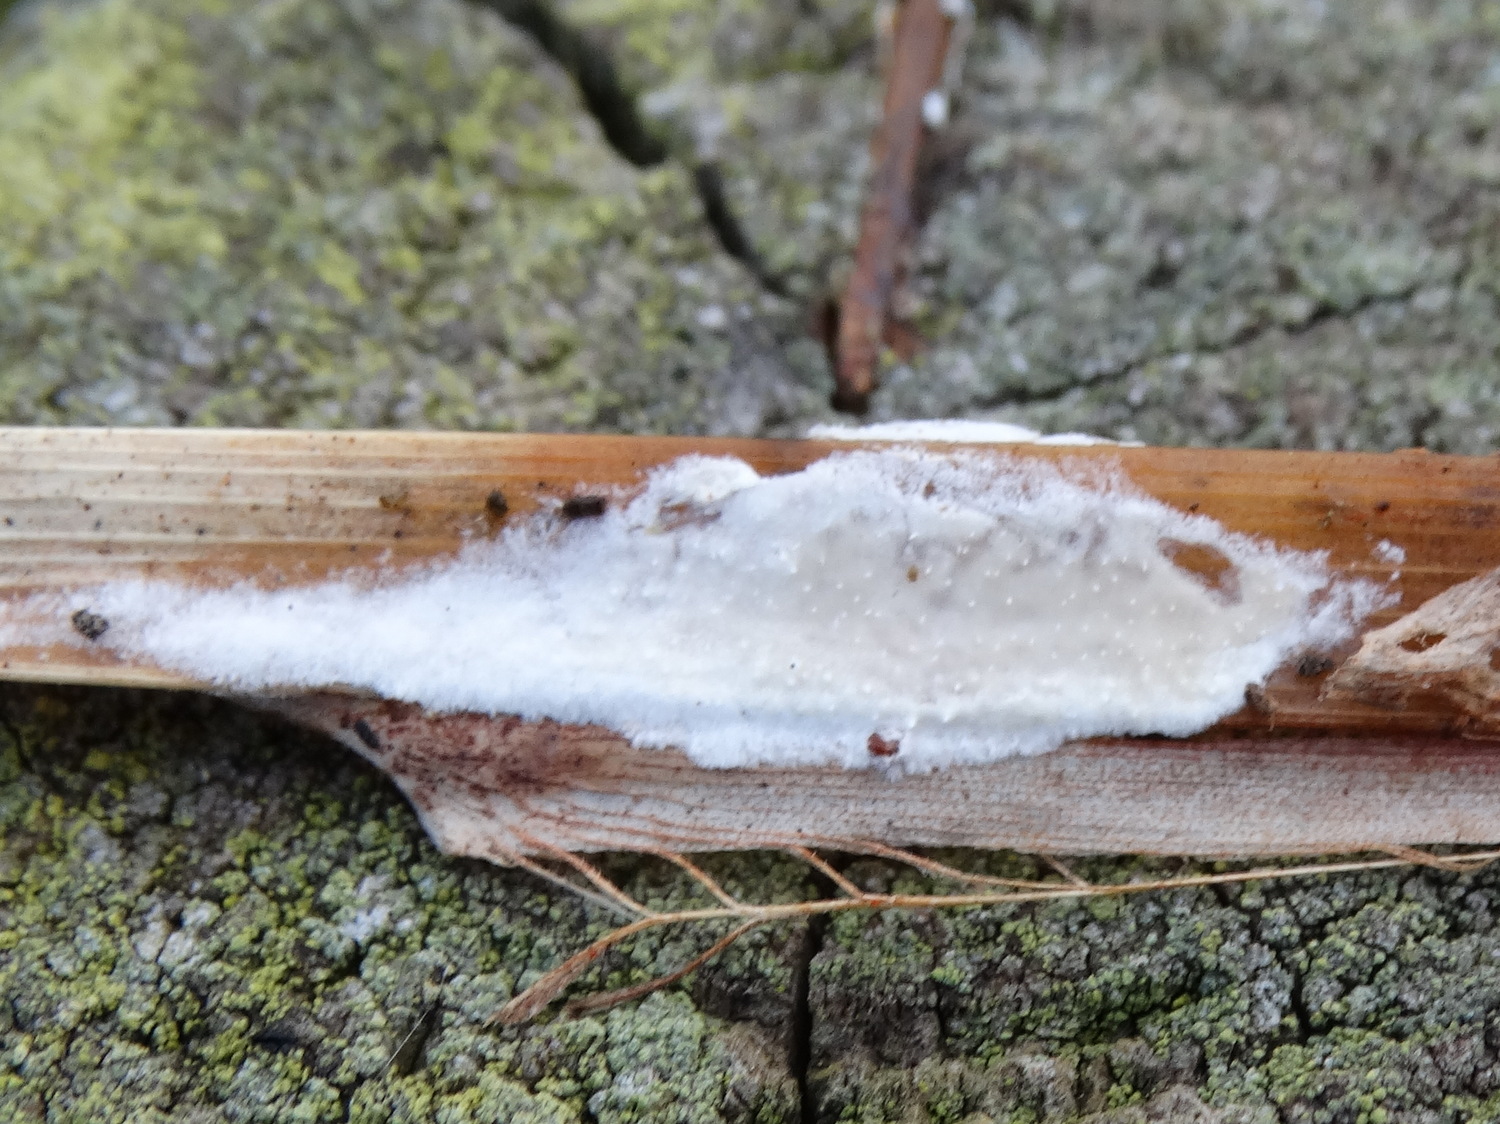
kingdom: Fungi
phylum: Basidiomycota
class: Agaricomycetes
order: Polyporales
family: Polyporaceae
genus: Epithele
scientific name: Epithele typhae
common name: starpig
